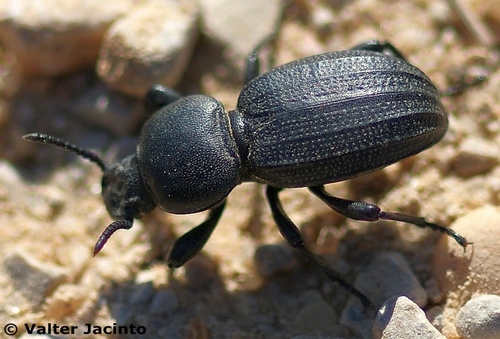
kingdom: Animalia
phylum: Arthropoda
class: Insecta
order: Coleoptera
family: Tenebrionidae
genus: Scaurus
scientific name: Scaurus uncinus
